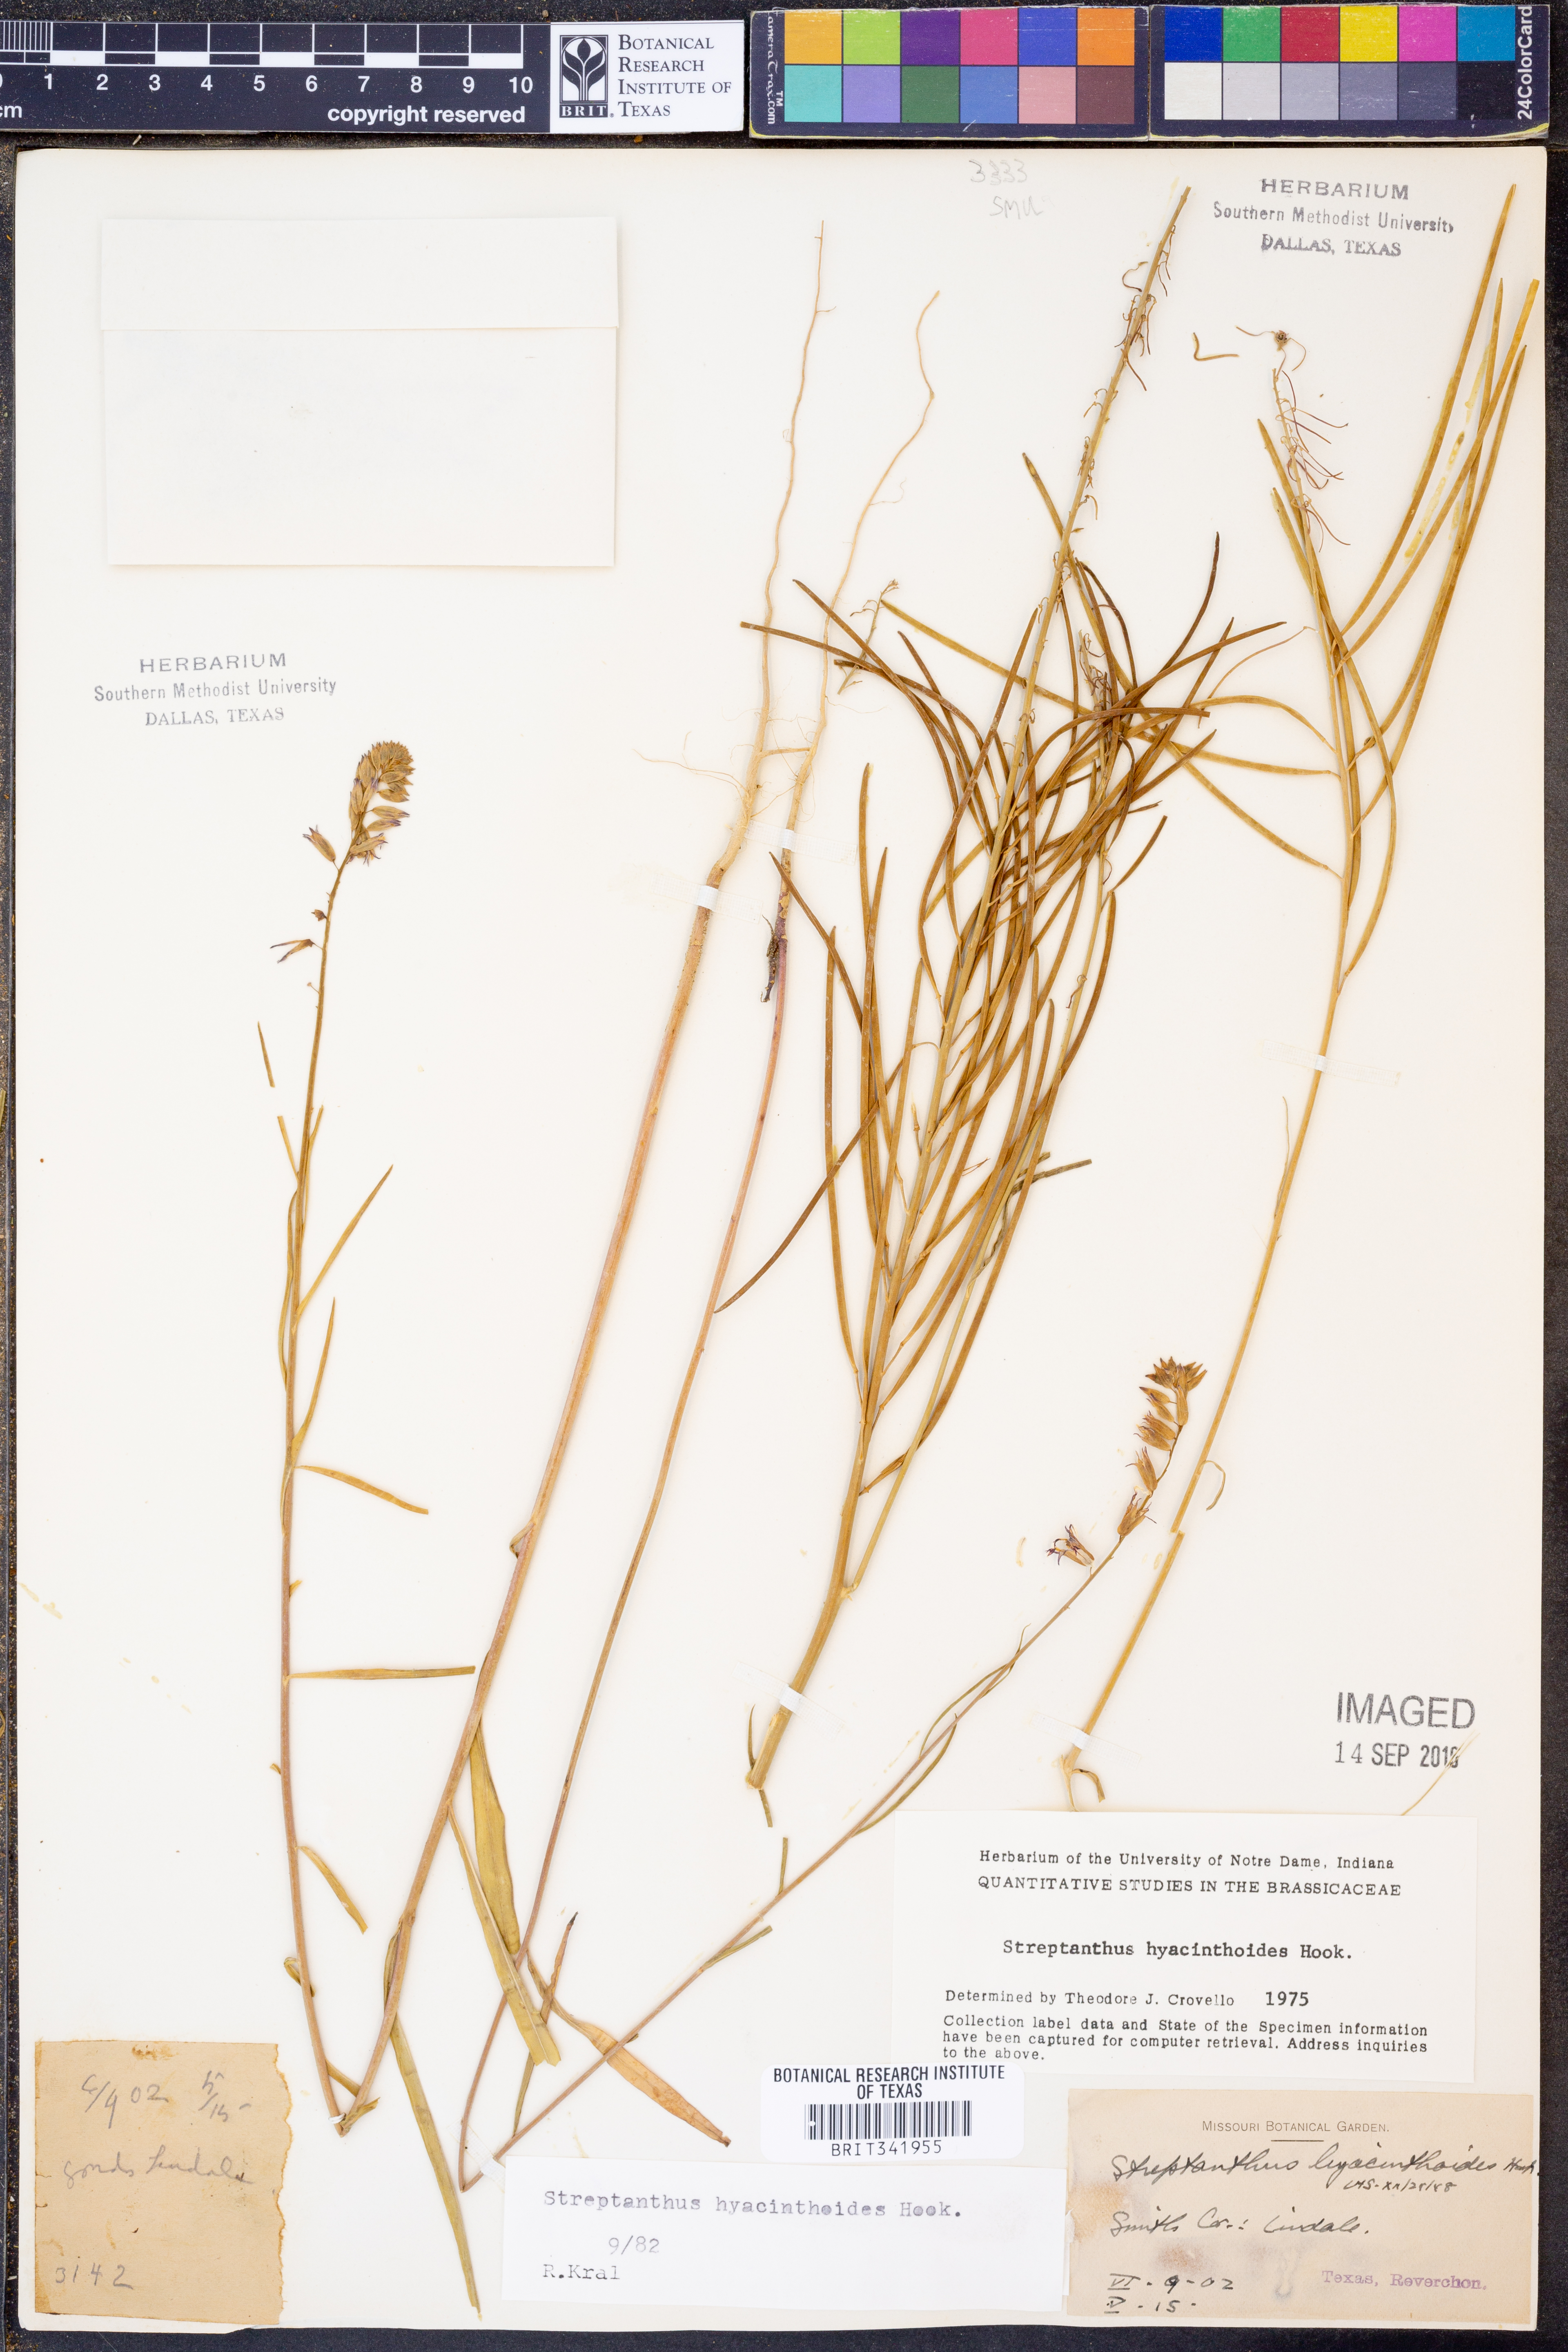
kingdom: Plantae
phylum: Tracheophyta
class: Magnoliopsida
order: Brassicales
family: Brassicaceae
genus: Streptanthus
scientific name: Streptanthus hyacinthoides
